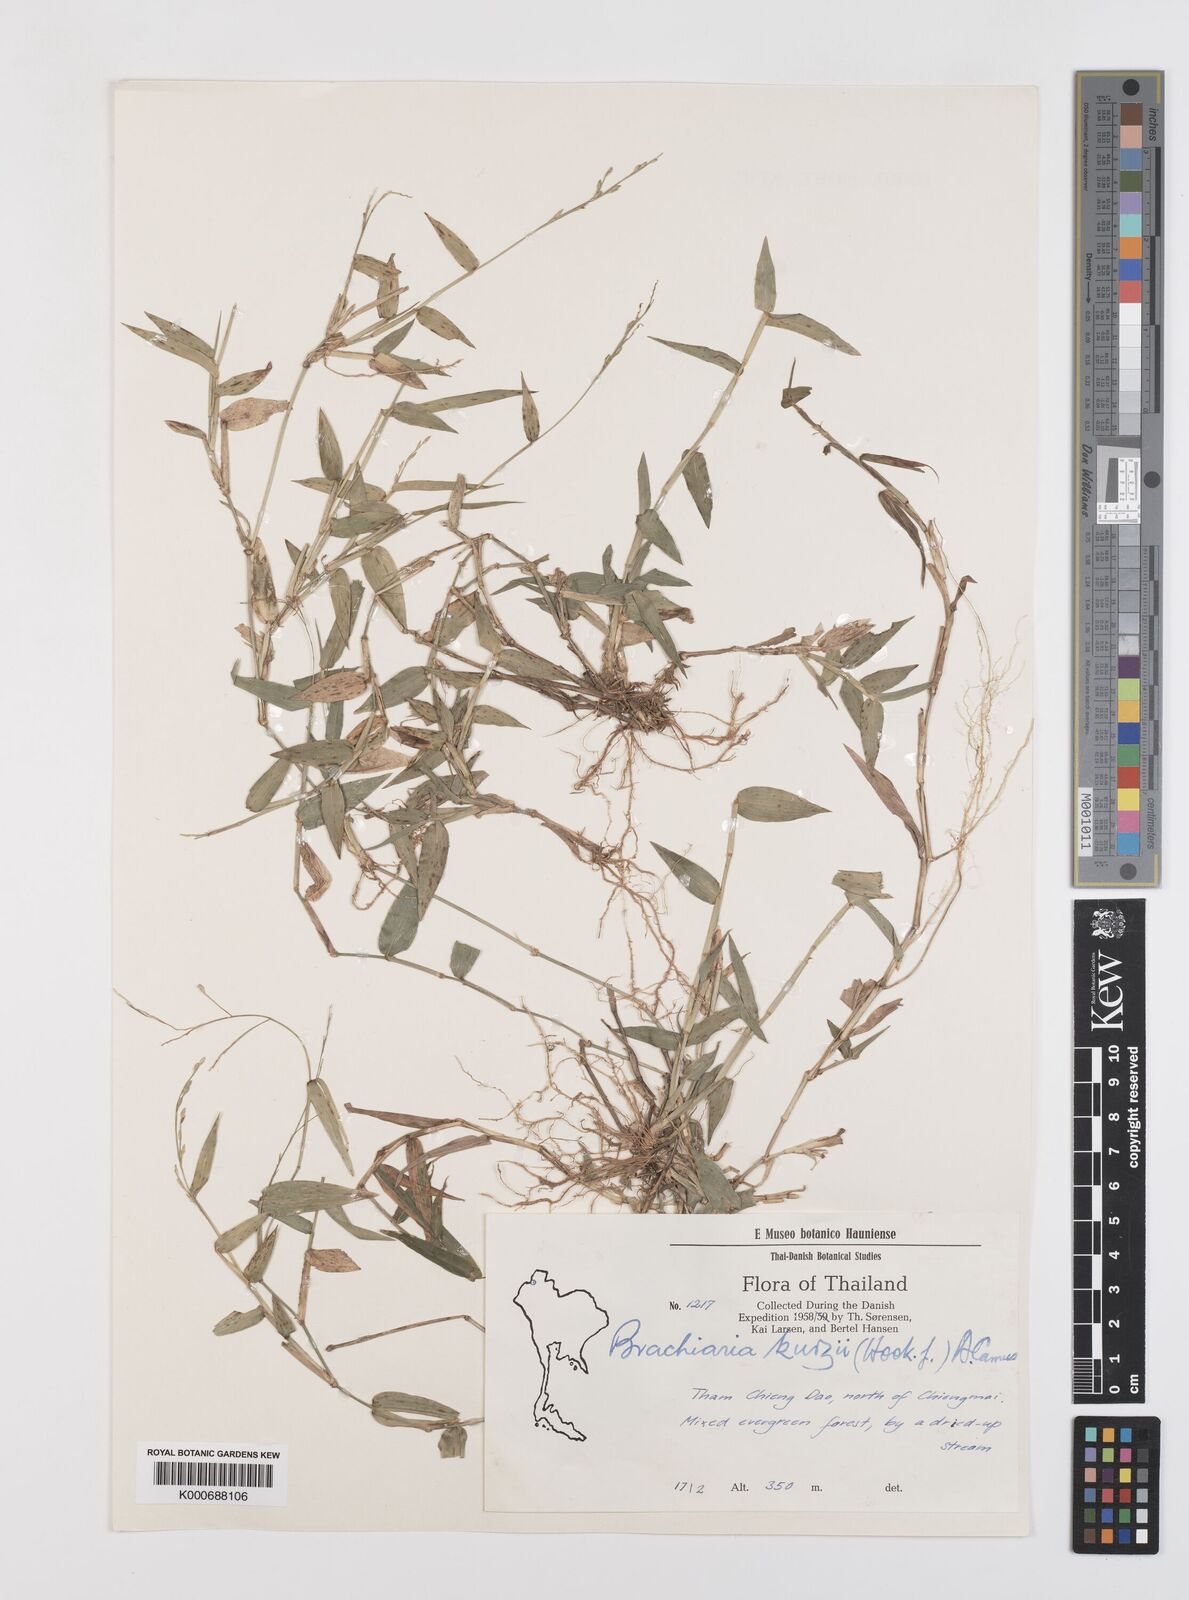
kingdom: Plantae
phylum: Tracheophyta
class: Liliopsida
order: Poales
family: Poaceae
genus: Urochloa
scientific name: Urochloa kurzii
